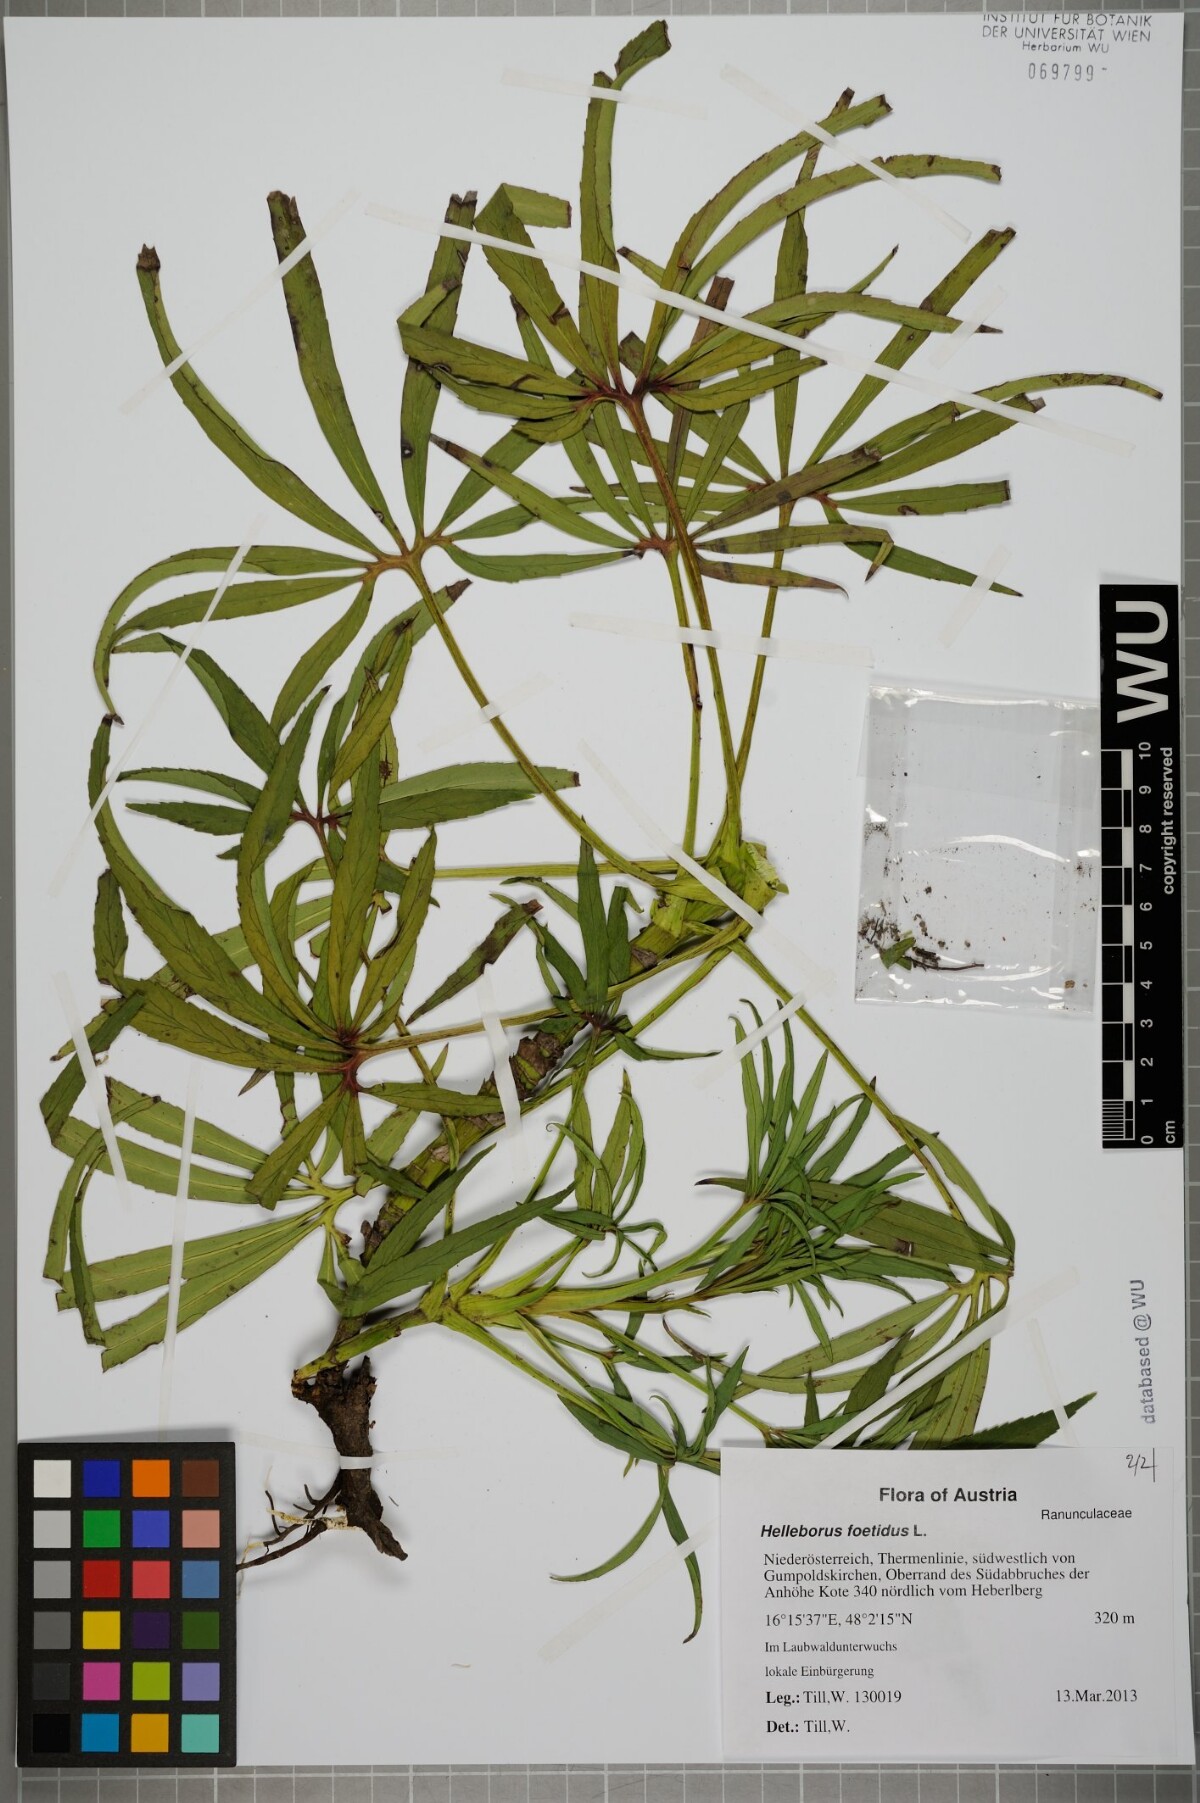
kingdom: Plantae
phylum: Tracheophyta
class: Magnoliopsida
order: Ranunculales
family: Ranunculaceae
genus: Helleborus
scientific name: Helleborus foetidus
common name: Stinking hellebore
